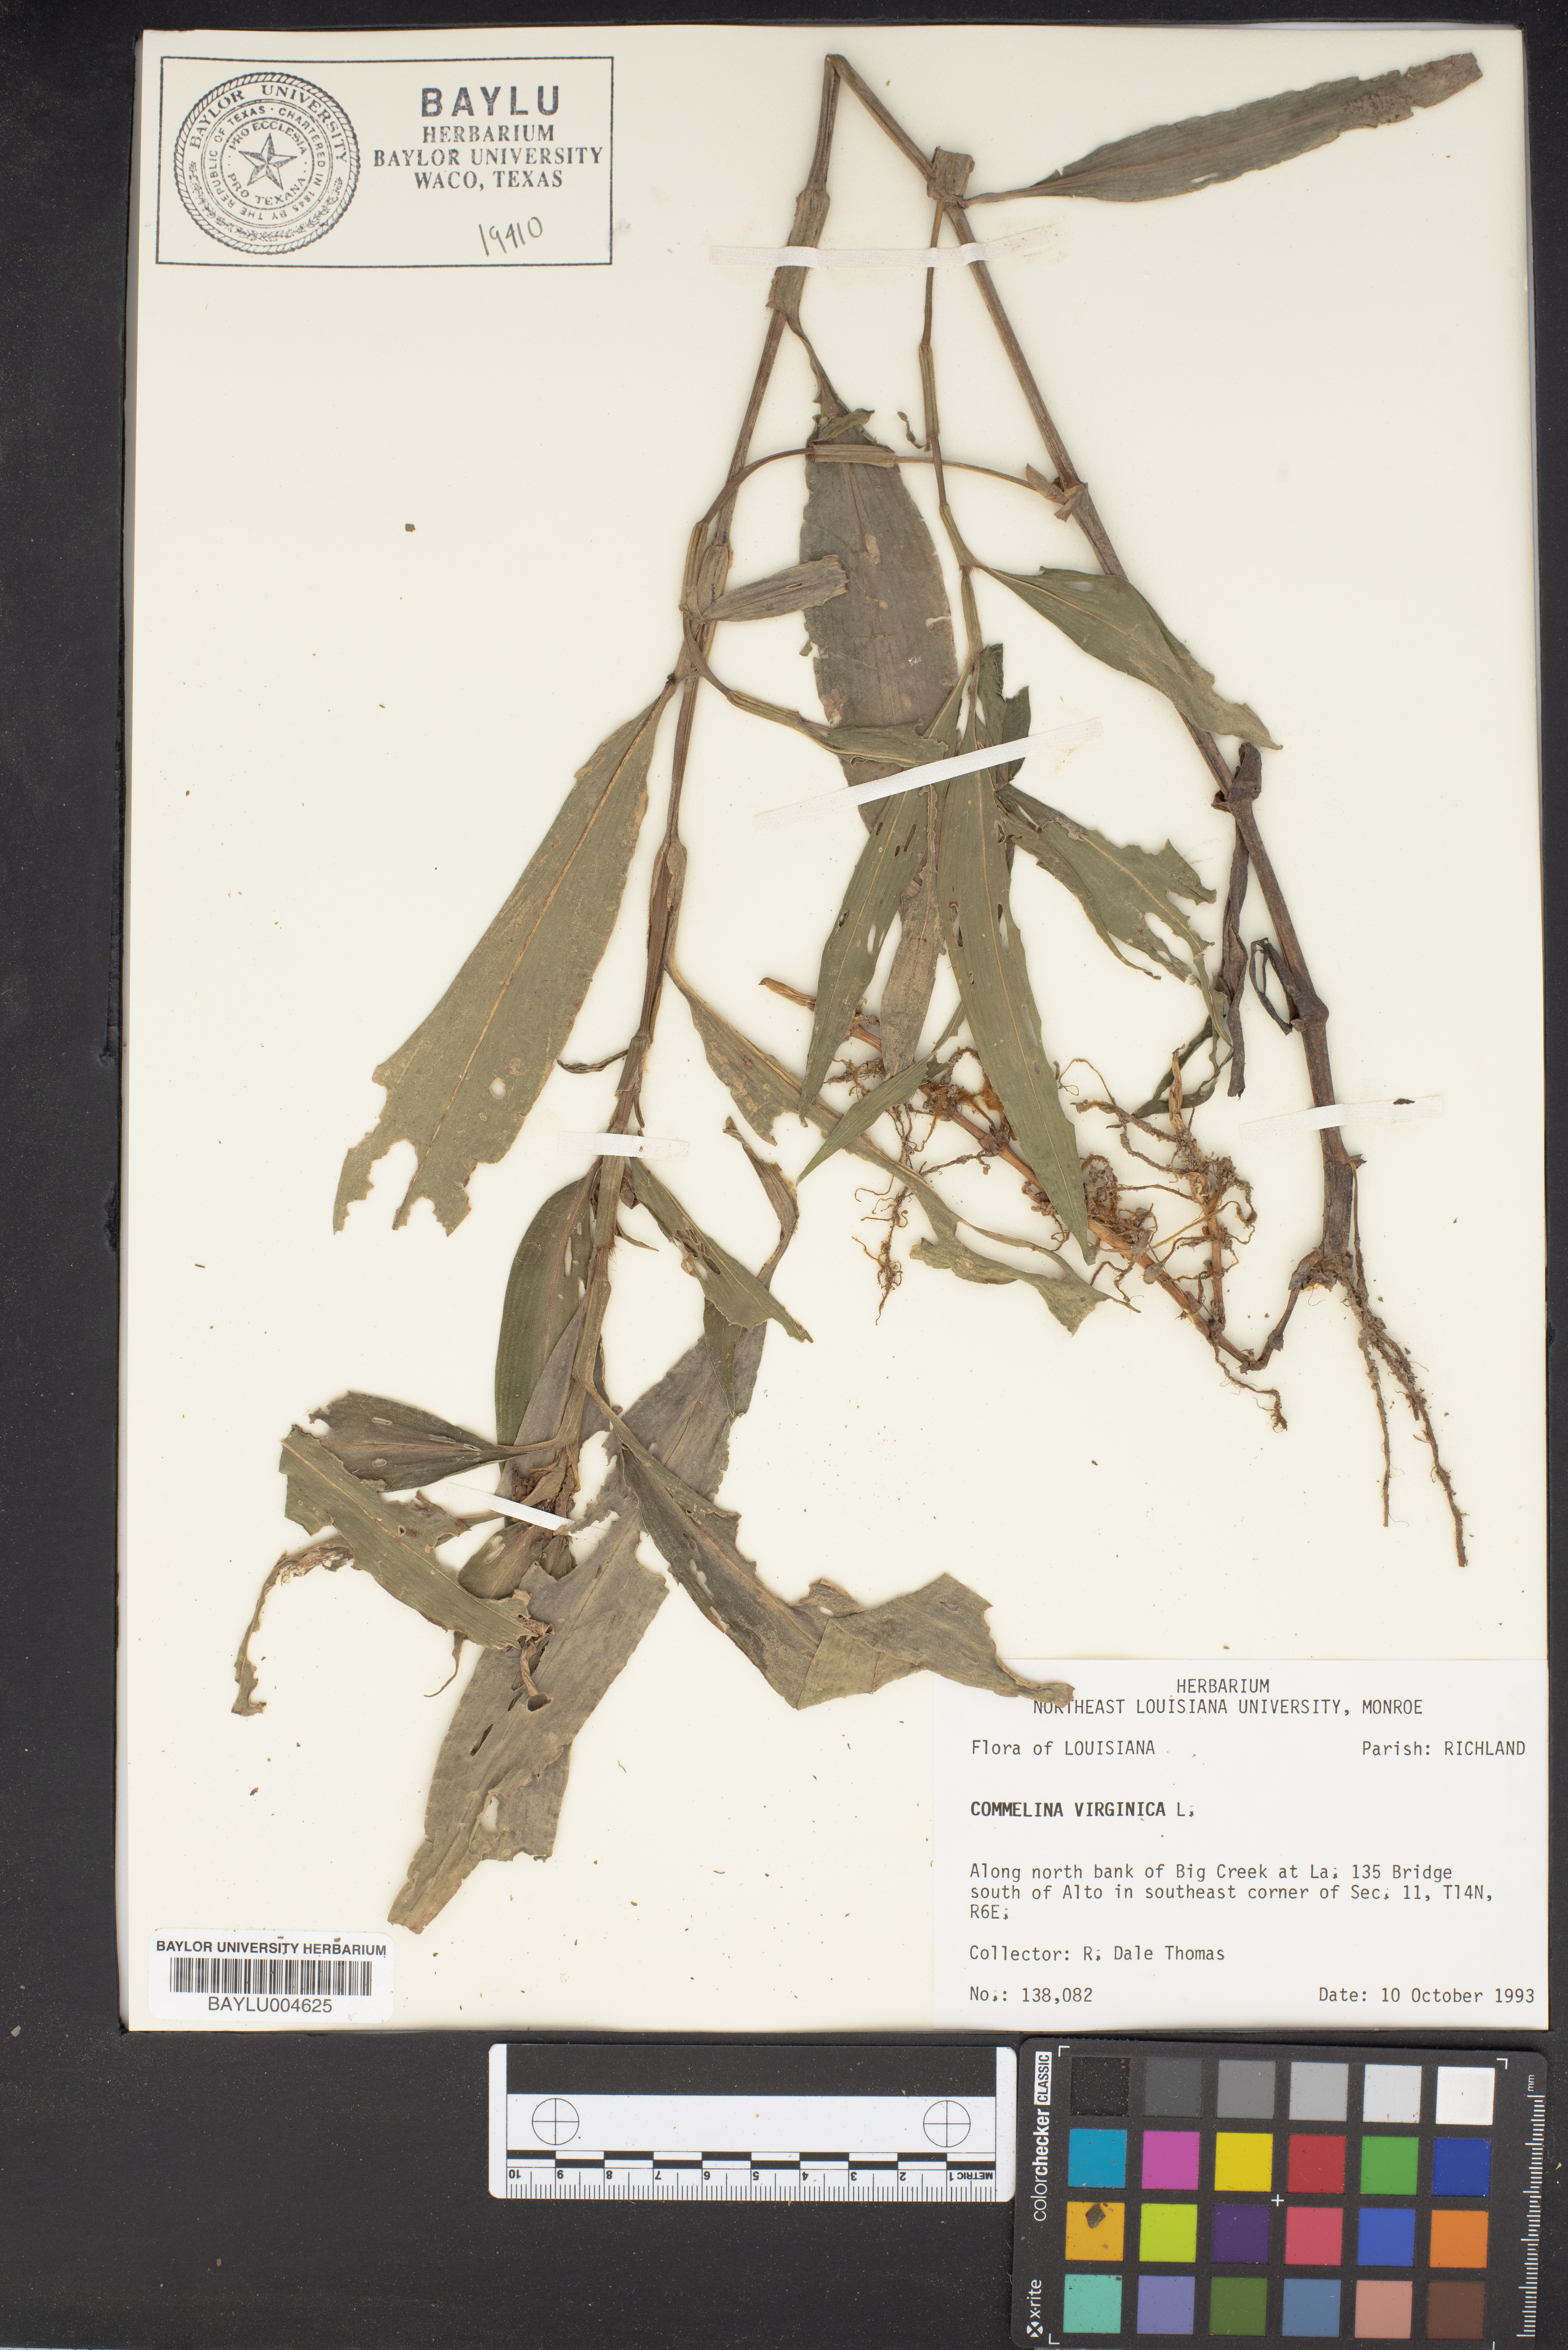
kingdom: Plantae
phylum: Tracheophyta
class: Liliopsida
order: Commelinales
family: Commelinaceae
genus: Commelina
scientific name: Commelina virginica
